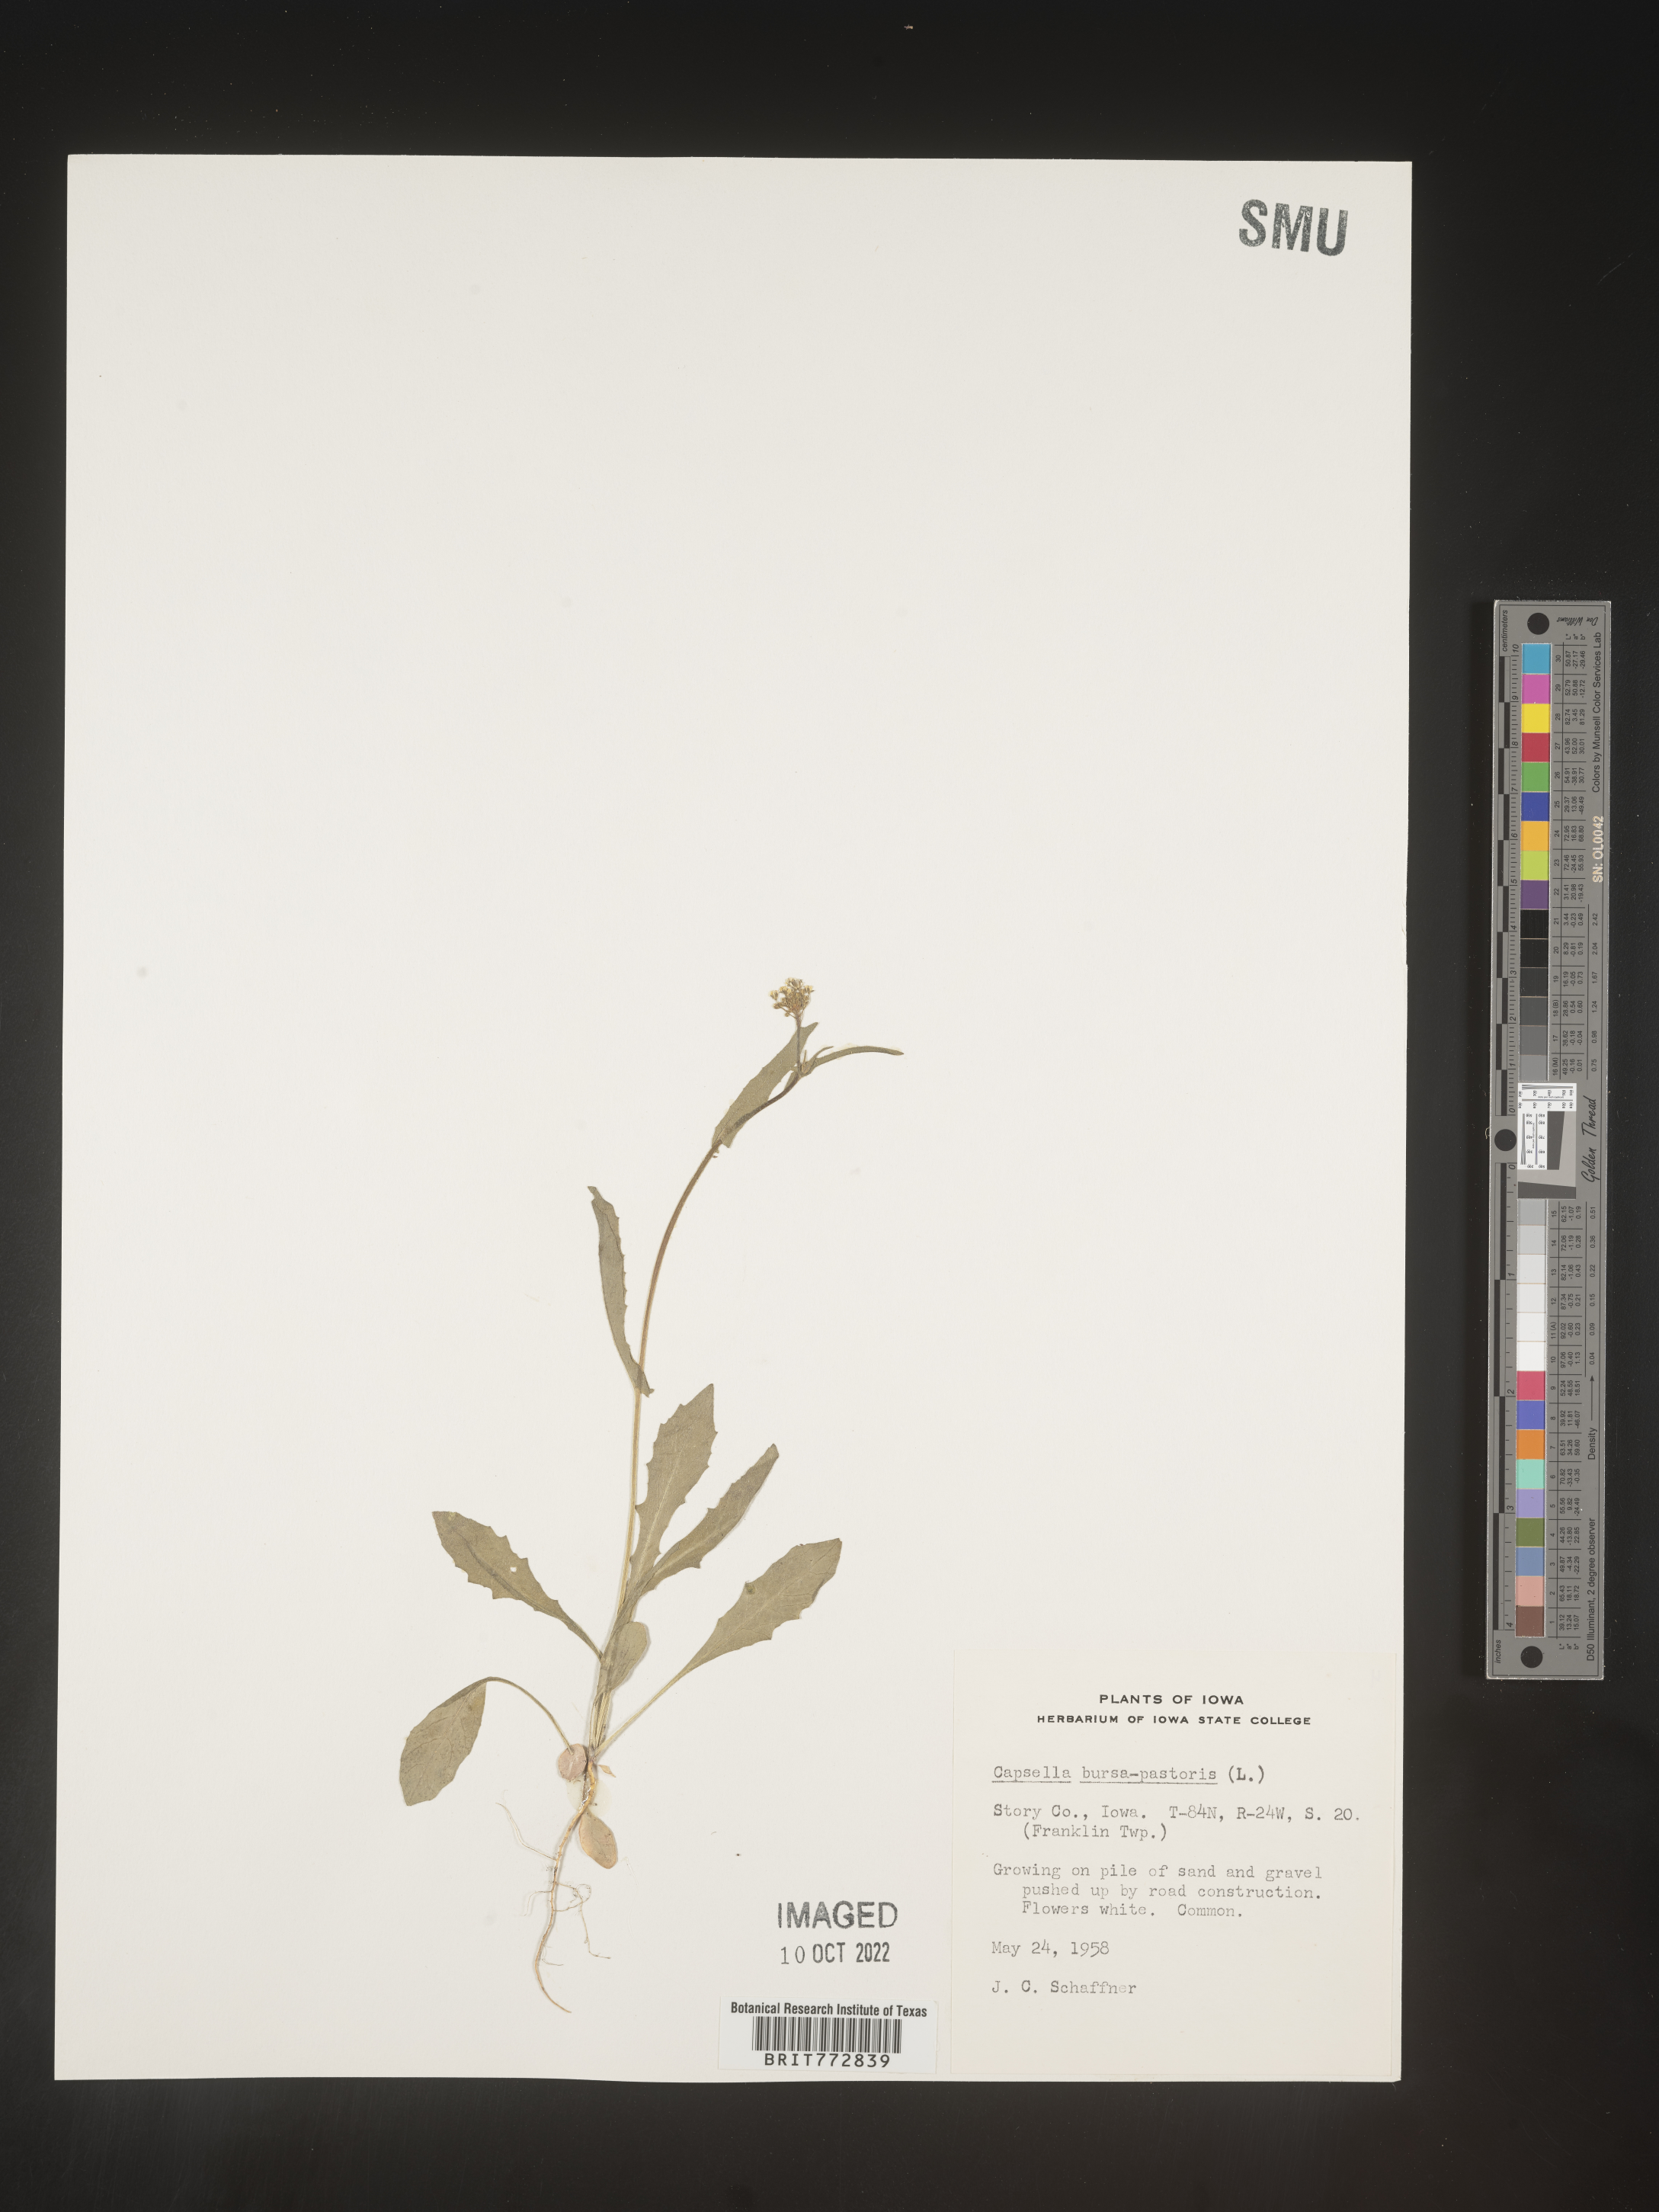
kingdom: Plantae
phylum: Tracheophyta
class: Magnoliopsida
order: Brassicales
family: Brassicaceae
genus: Capsella
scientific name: Capsella bursa-pastoris
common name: Shepherd's purse
